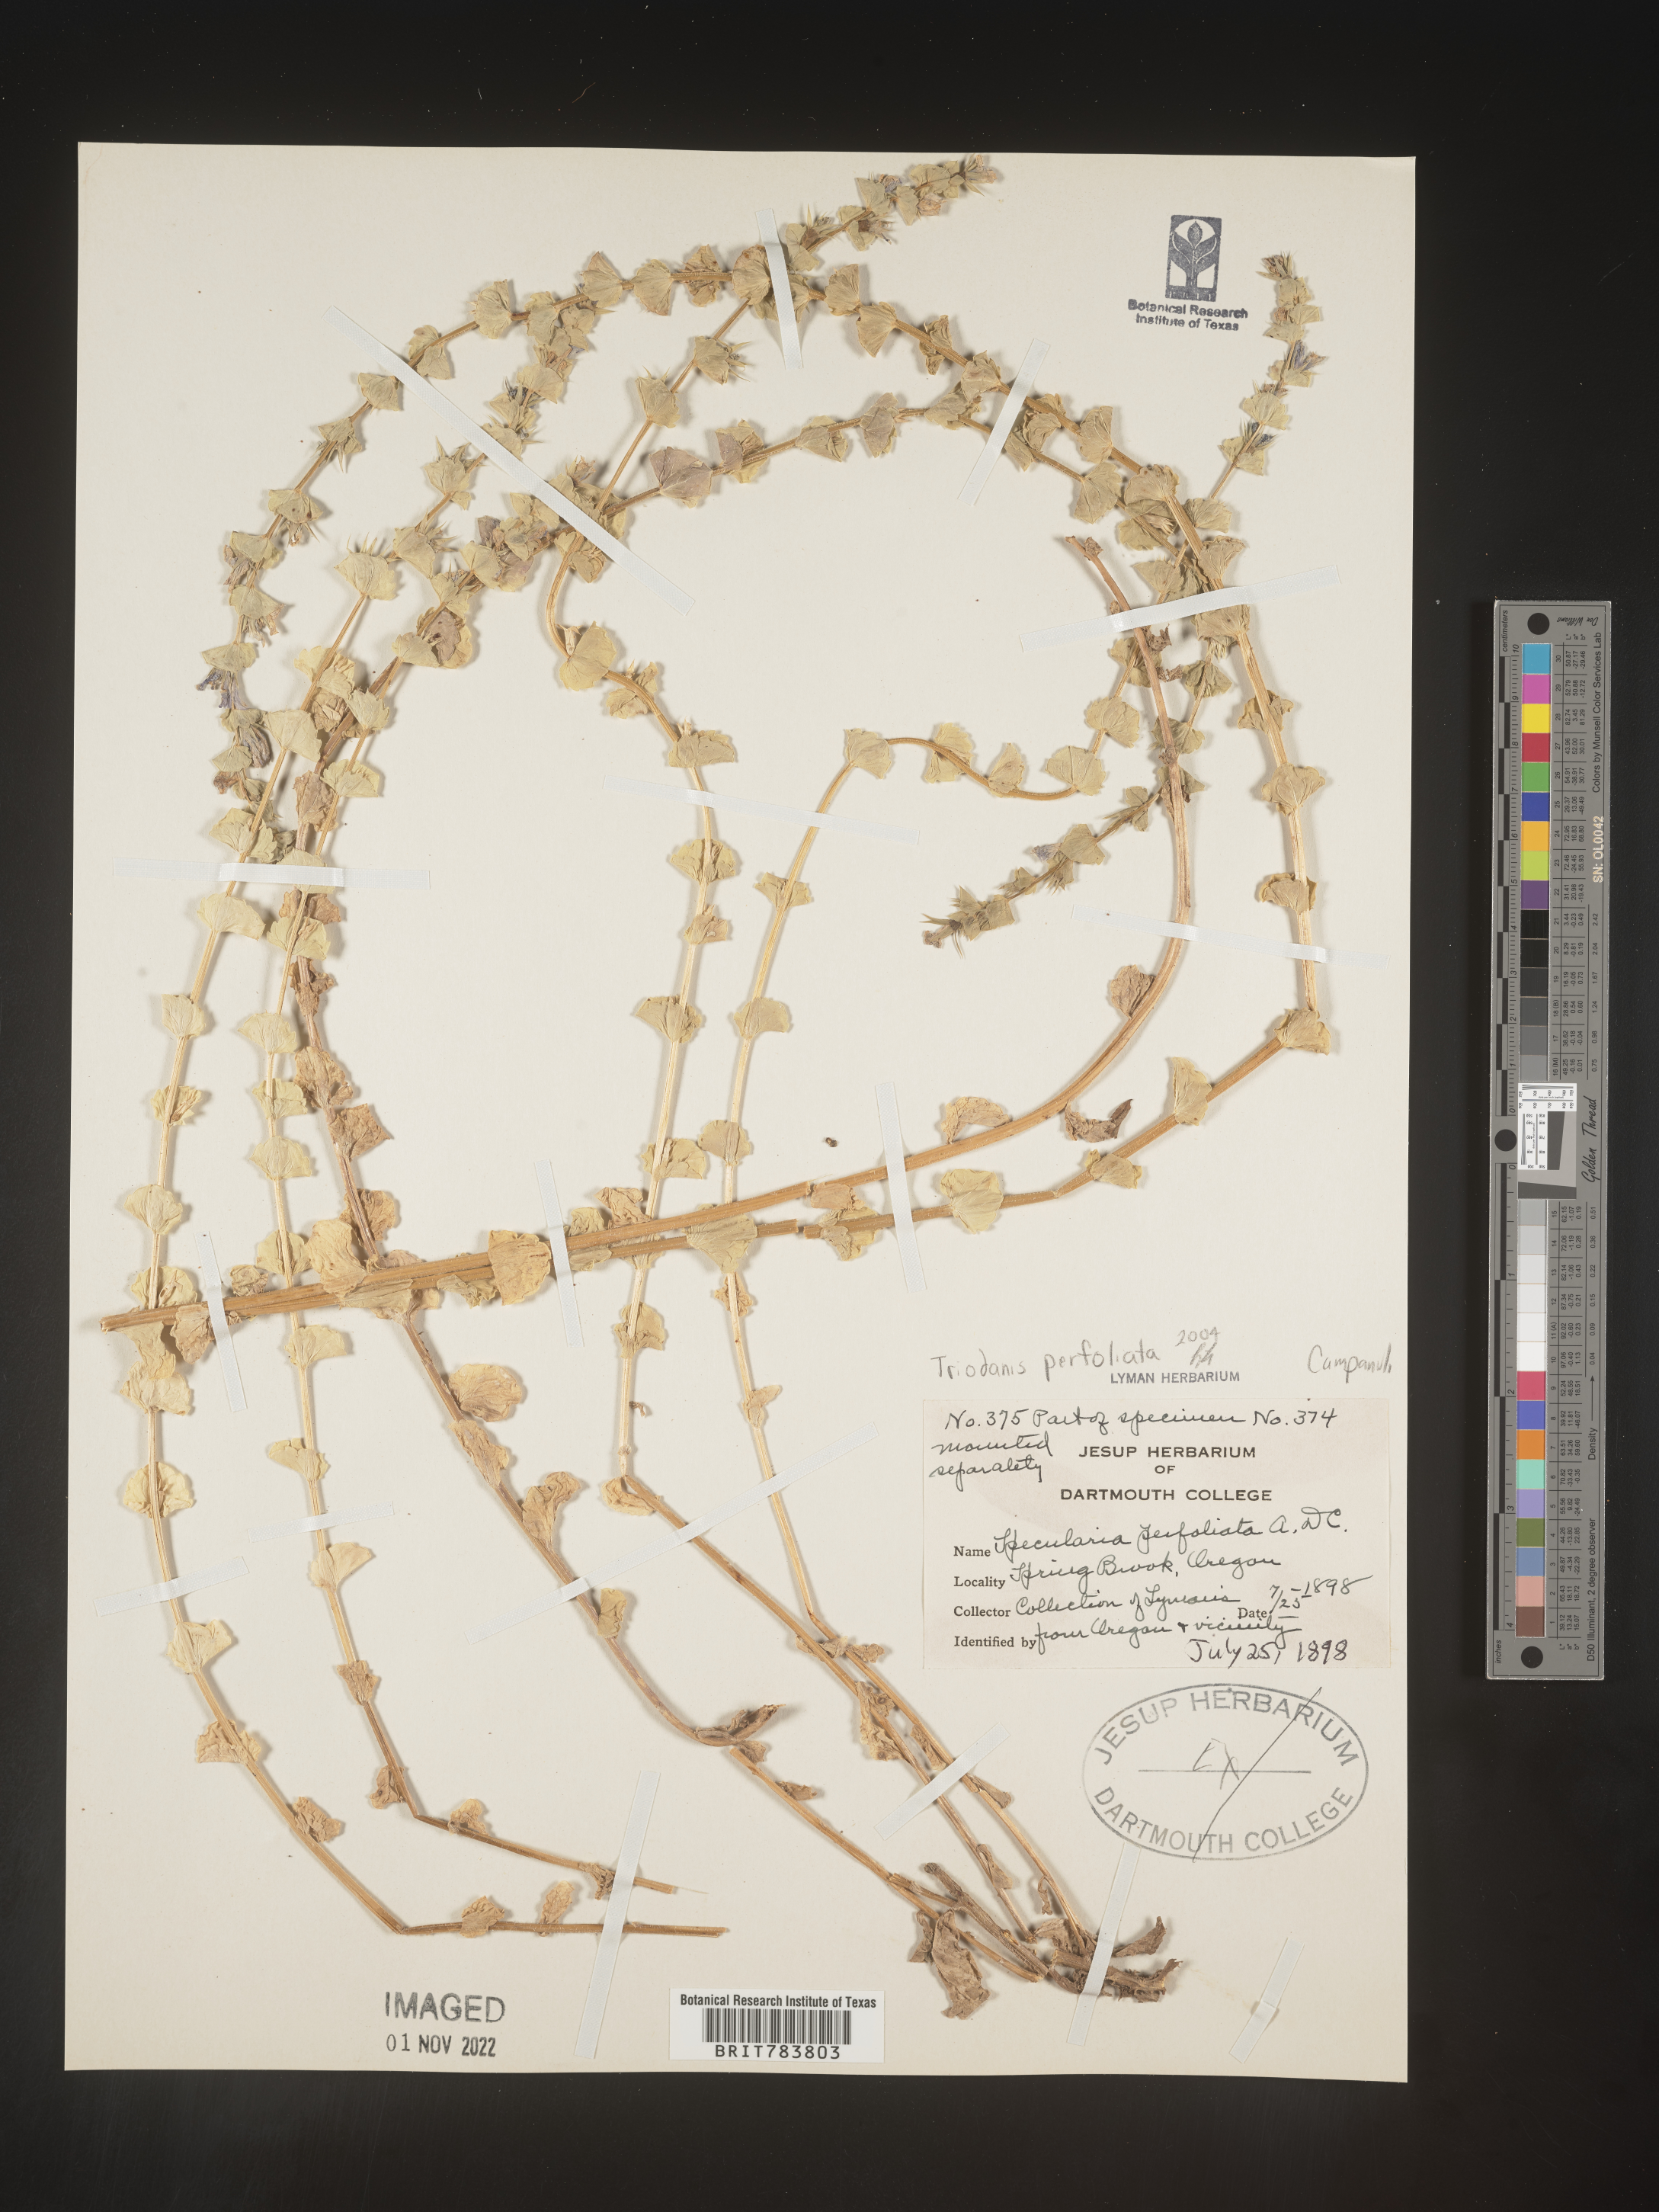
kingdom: Plantae
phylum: Tracheophyta
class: Magnoliopsida
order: Asterales
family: Campanulaceae
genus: Triodanis
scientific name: Triodanis perfoliata
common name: Clasping venus' looking-glass
